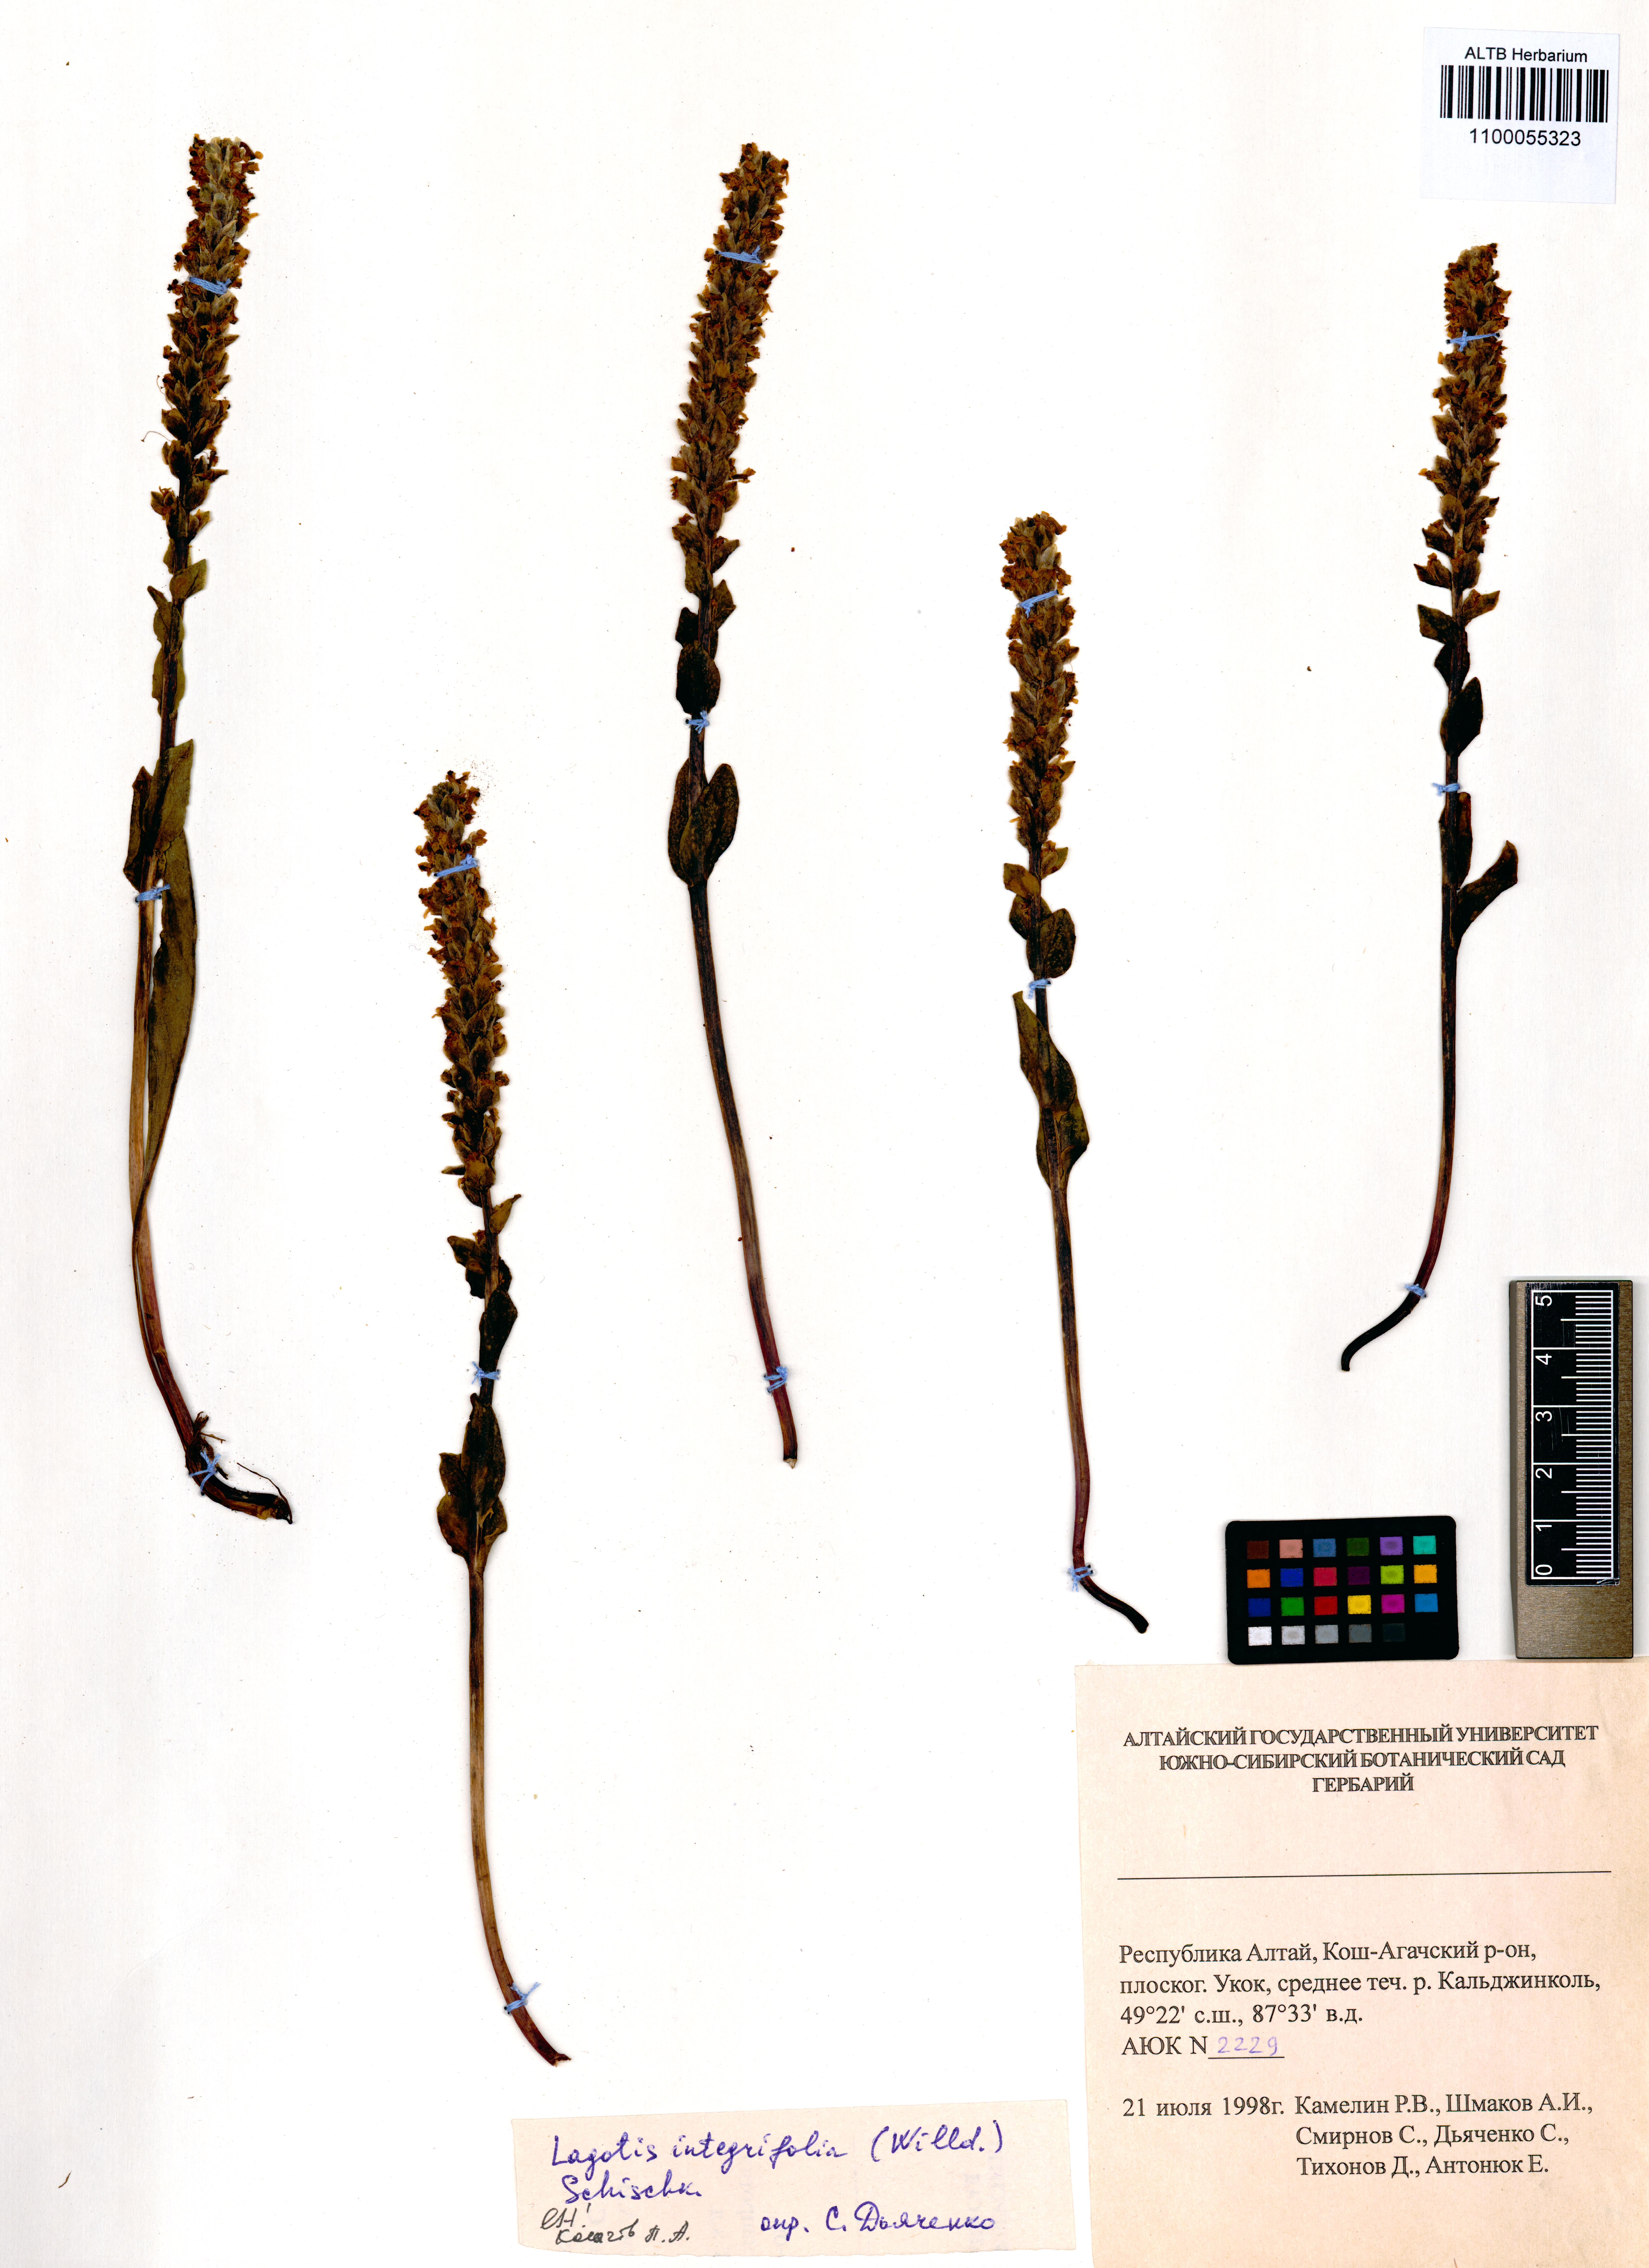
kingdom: Plantae
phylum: Tracheophyta
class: Magnoliopsida
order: Lamiales
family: Plantaginaceae
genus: Lagotis
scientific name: Lagotis integrifolia
